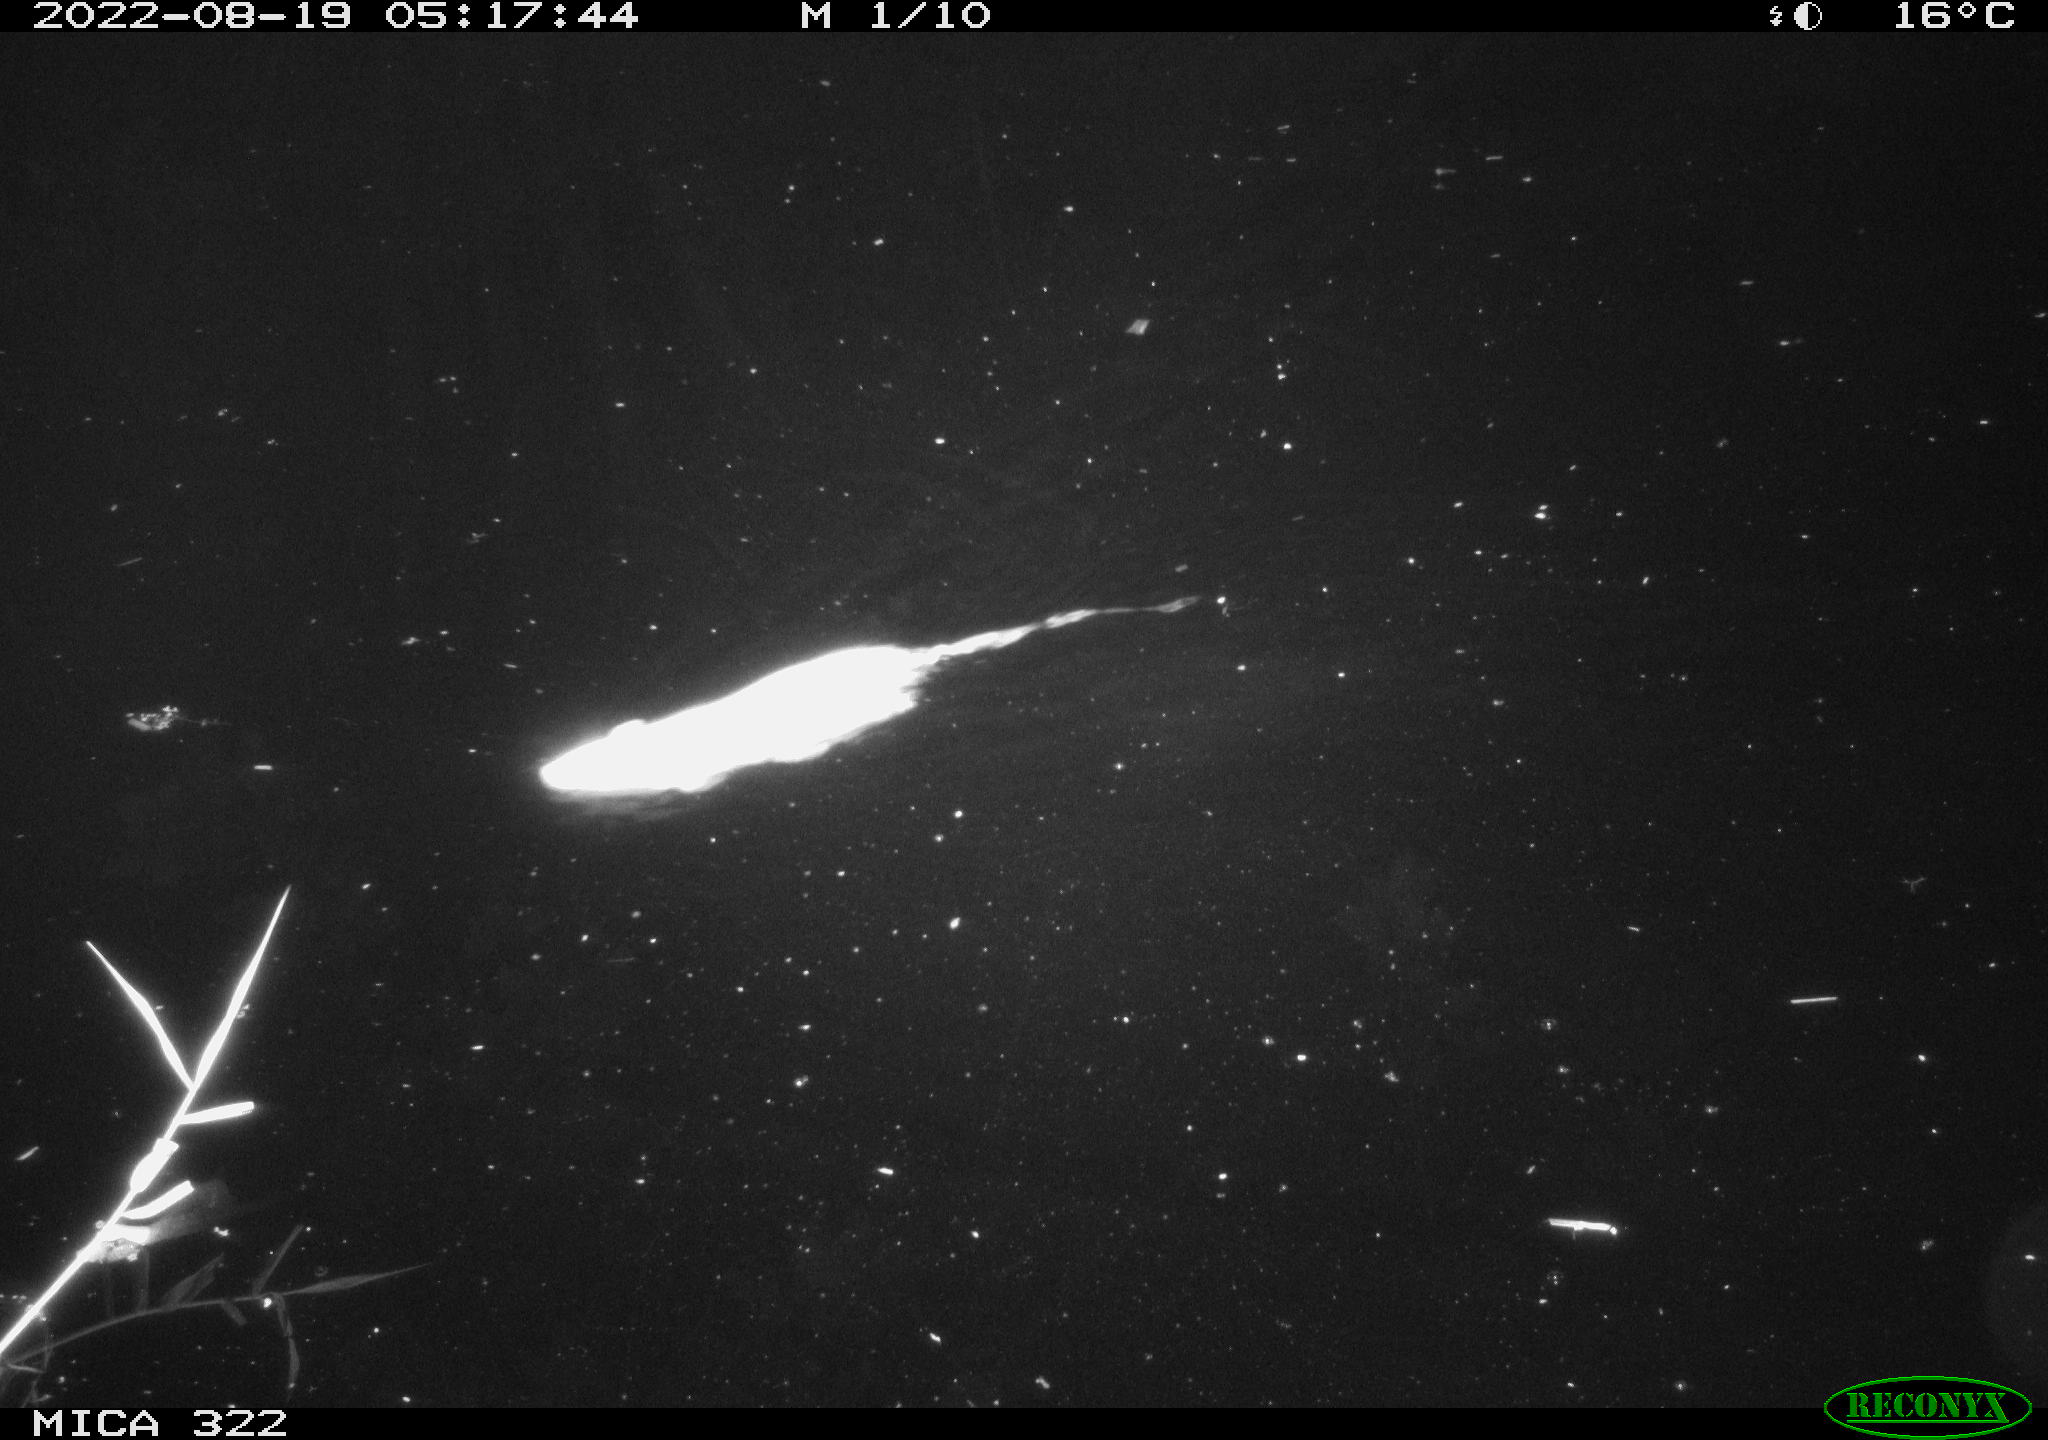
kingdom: Animalia
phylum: Chordata
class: Mammalia
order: Rodentia
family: Muridae
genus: Rattus
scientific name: Rattus norvegicus
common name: Brown rat
